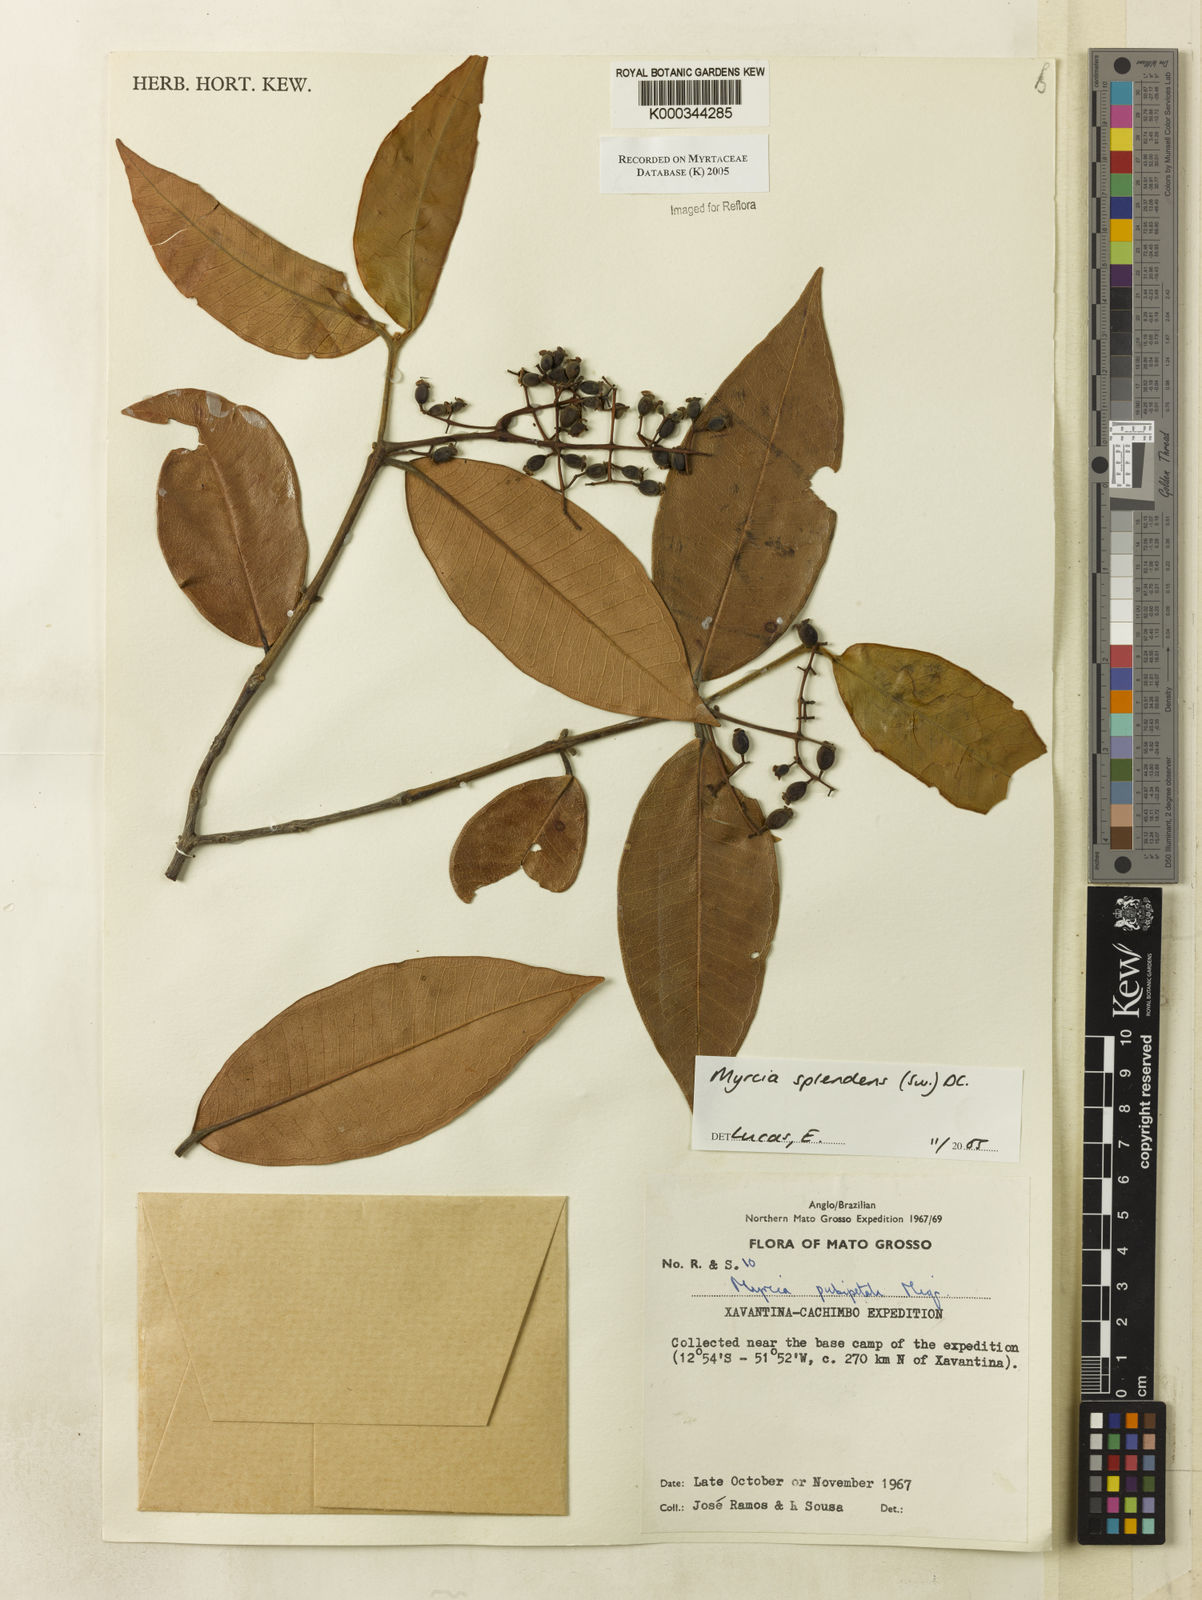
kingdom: Plantae
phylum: Tracheophyta
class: Magnoliopsida
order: Myrtales
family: Myrtaceae
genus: Myrcia
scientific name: Myrcia splendens
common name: Surinam cherry
